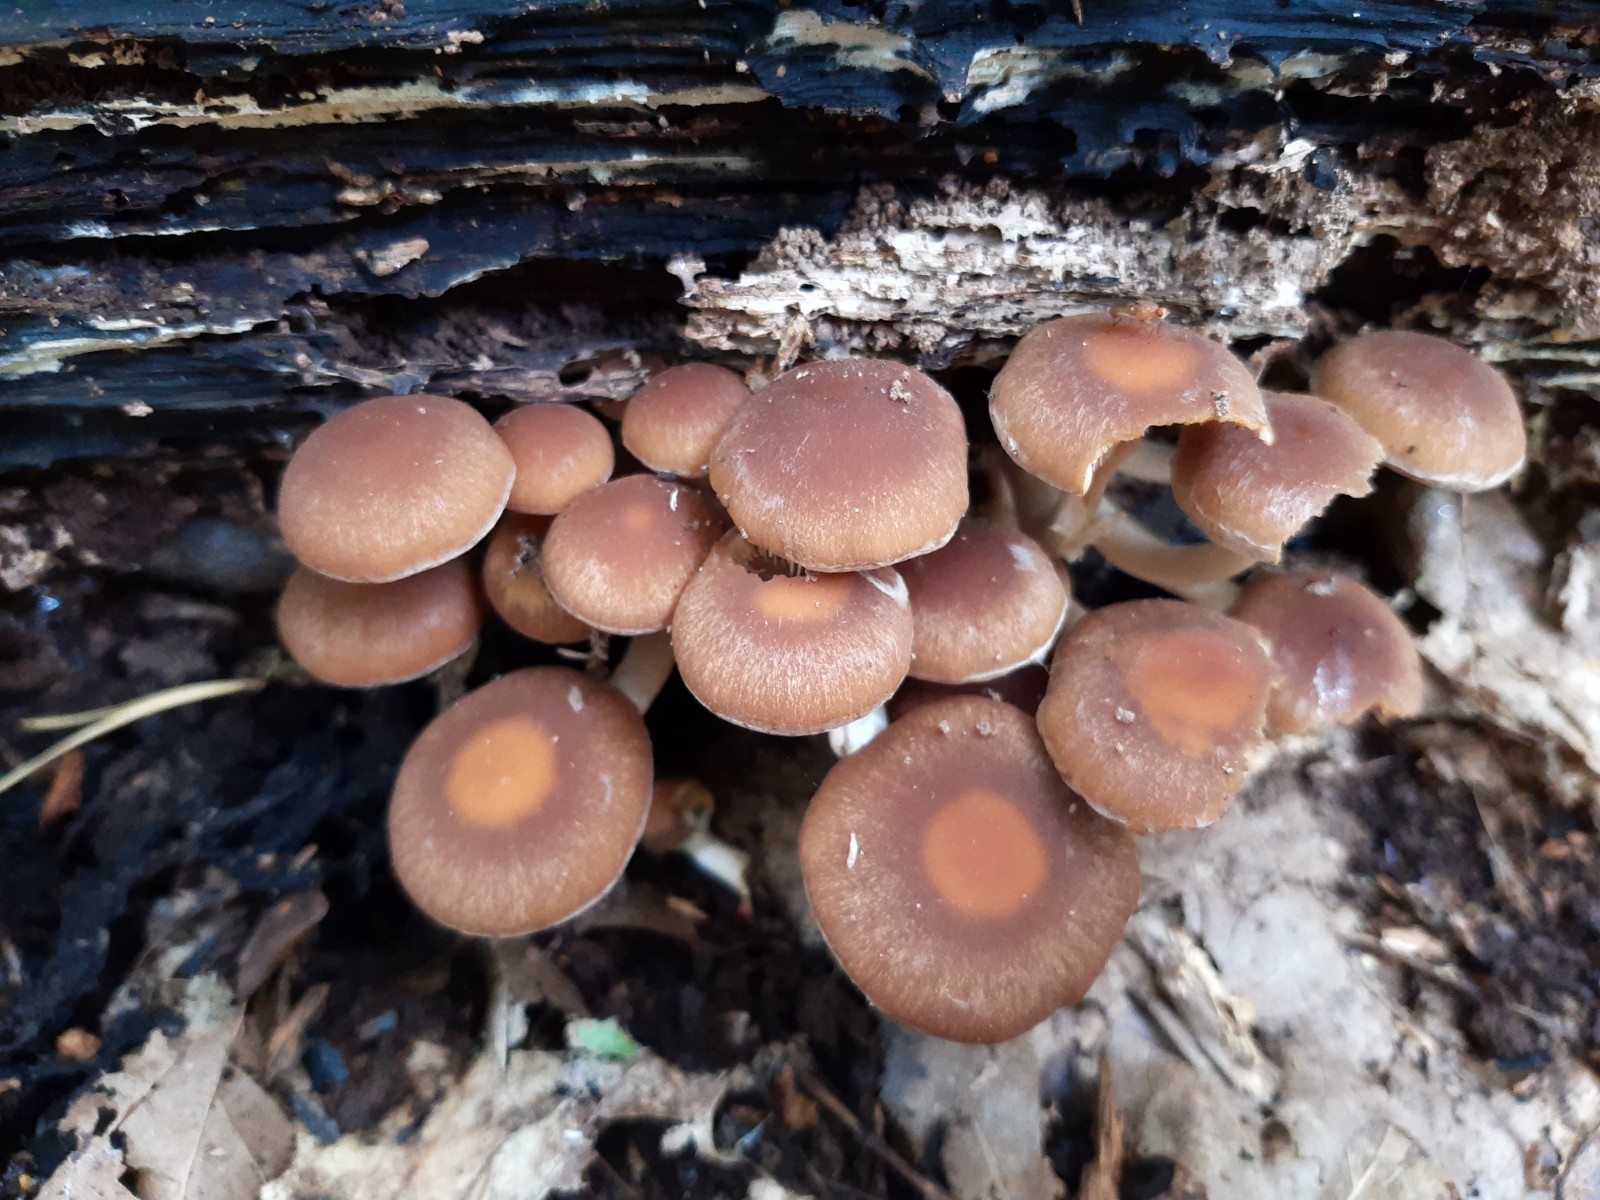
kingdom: Fungi
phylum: Basidiomycota
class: Agaricomycetes
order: Agaricales
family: Psathyrellaceae
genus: Psathyrella
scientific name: Psathyrella piluliformis
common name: lysstokket mørkhat
